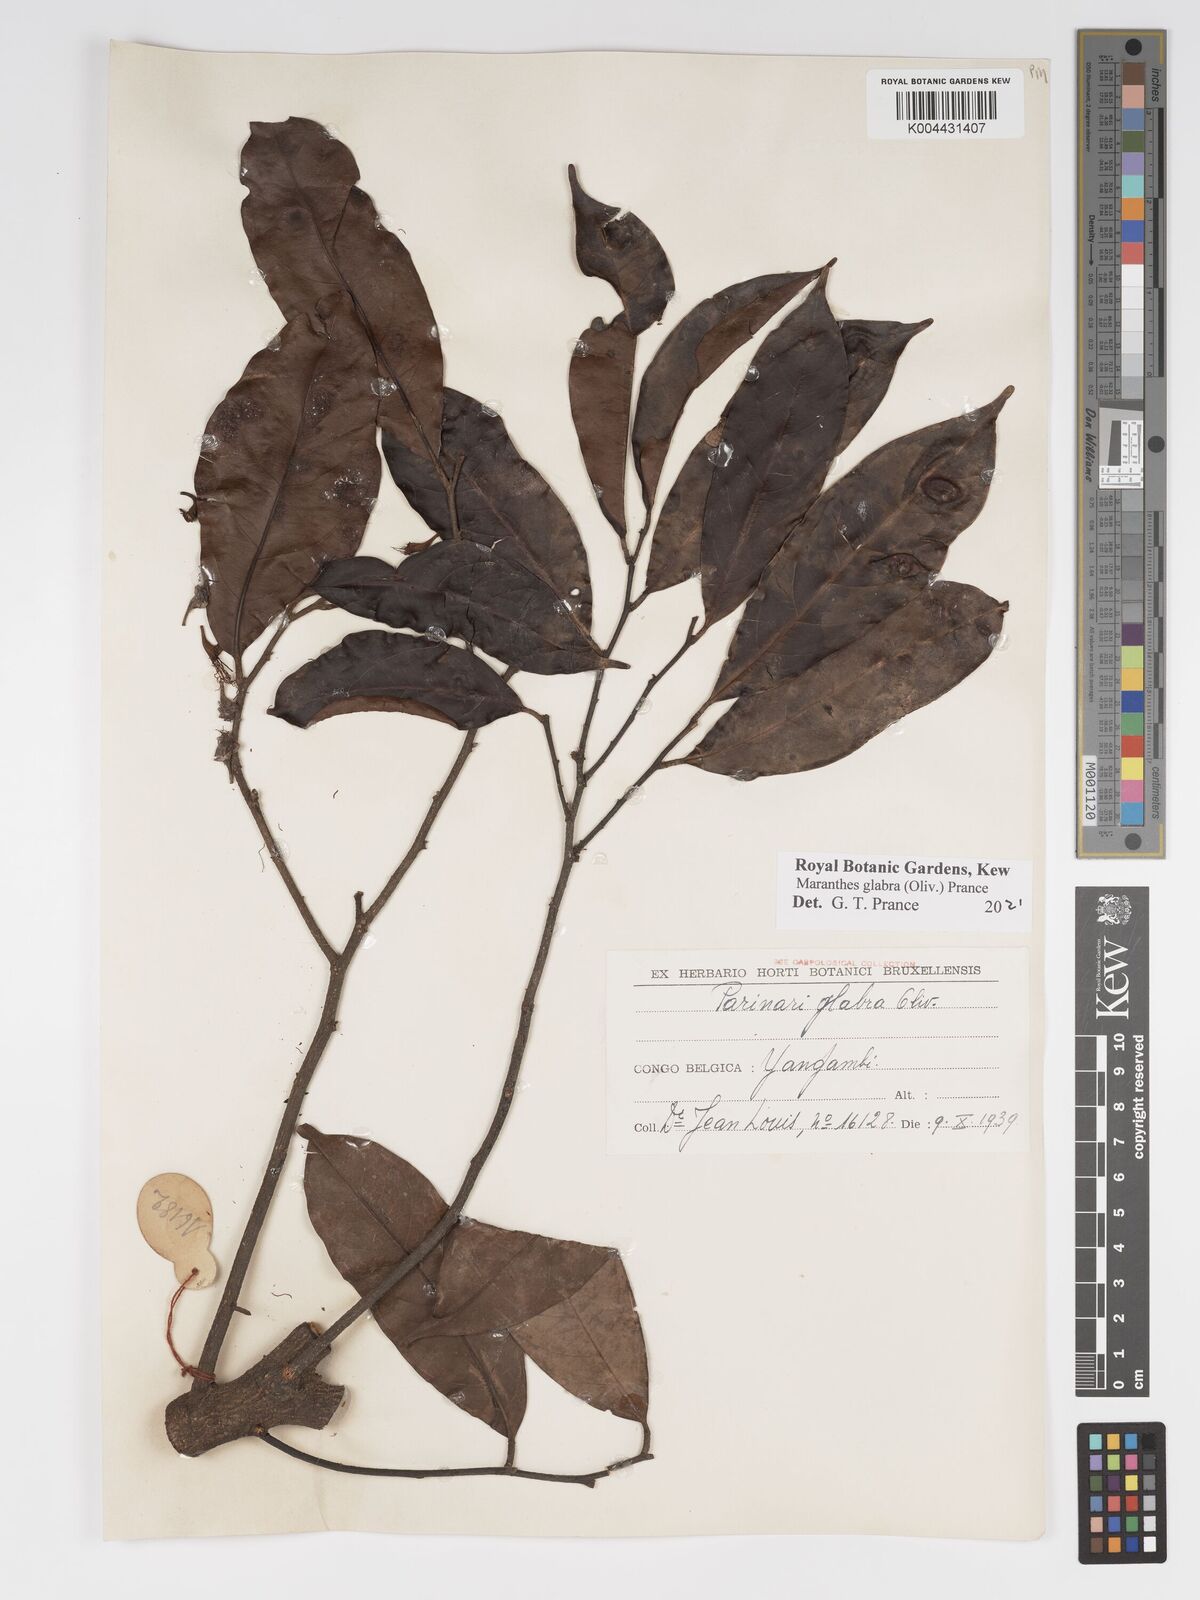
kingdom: Plantae
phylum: Tracheophyta
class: Magnoliopsida
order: Malpighiales
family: Chrysobalanaceae
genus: Maranthes
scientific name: Maranthes glabra
